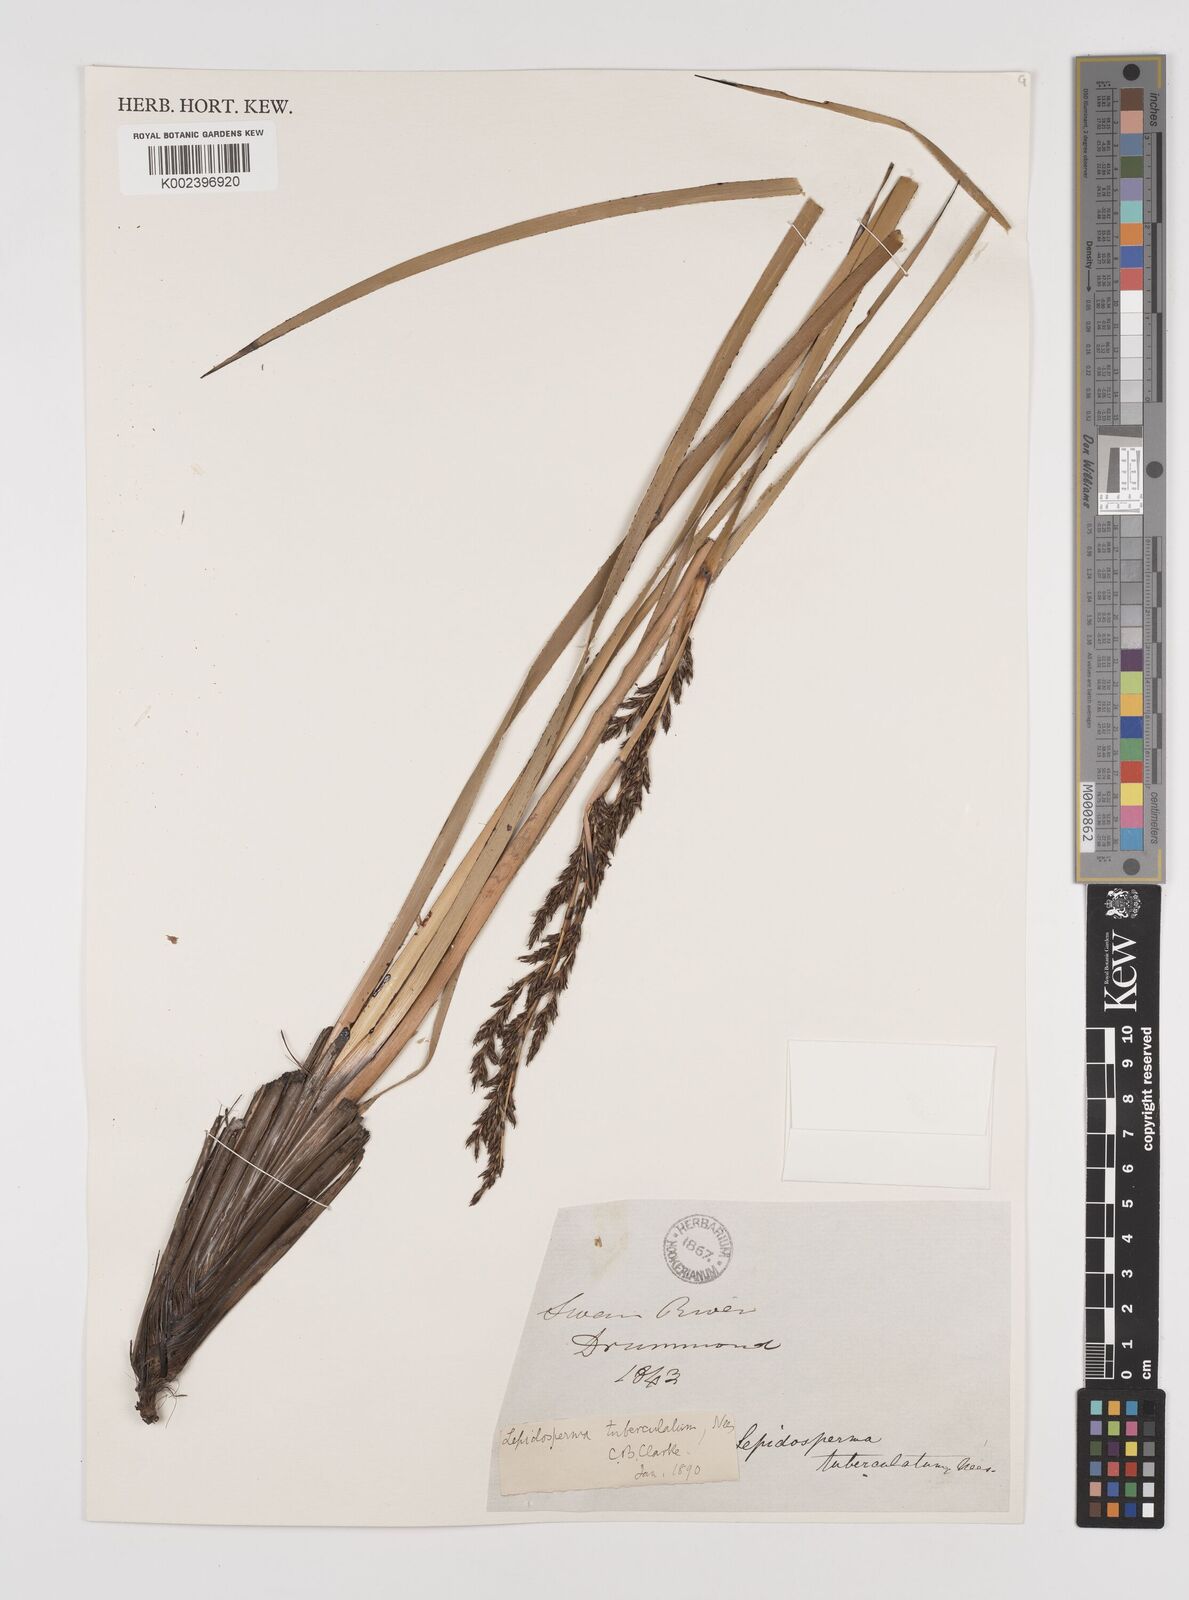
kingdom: Plantae
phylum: Tracheophyta
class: Liliopsida
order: Poales
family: Cyperaceae
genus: Lepidosperma
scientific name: Lepidosperma tuberculatum
